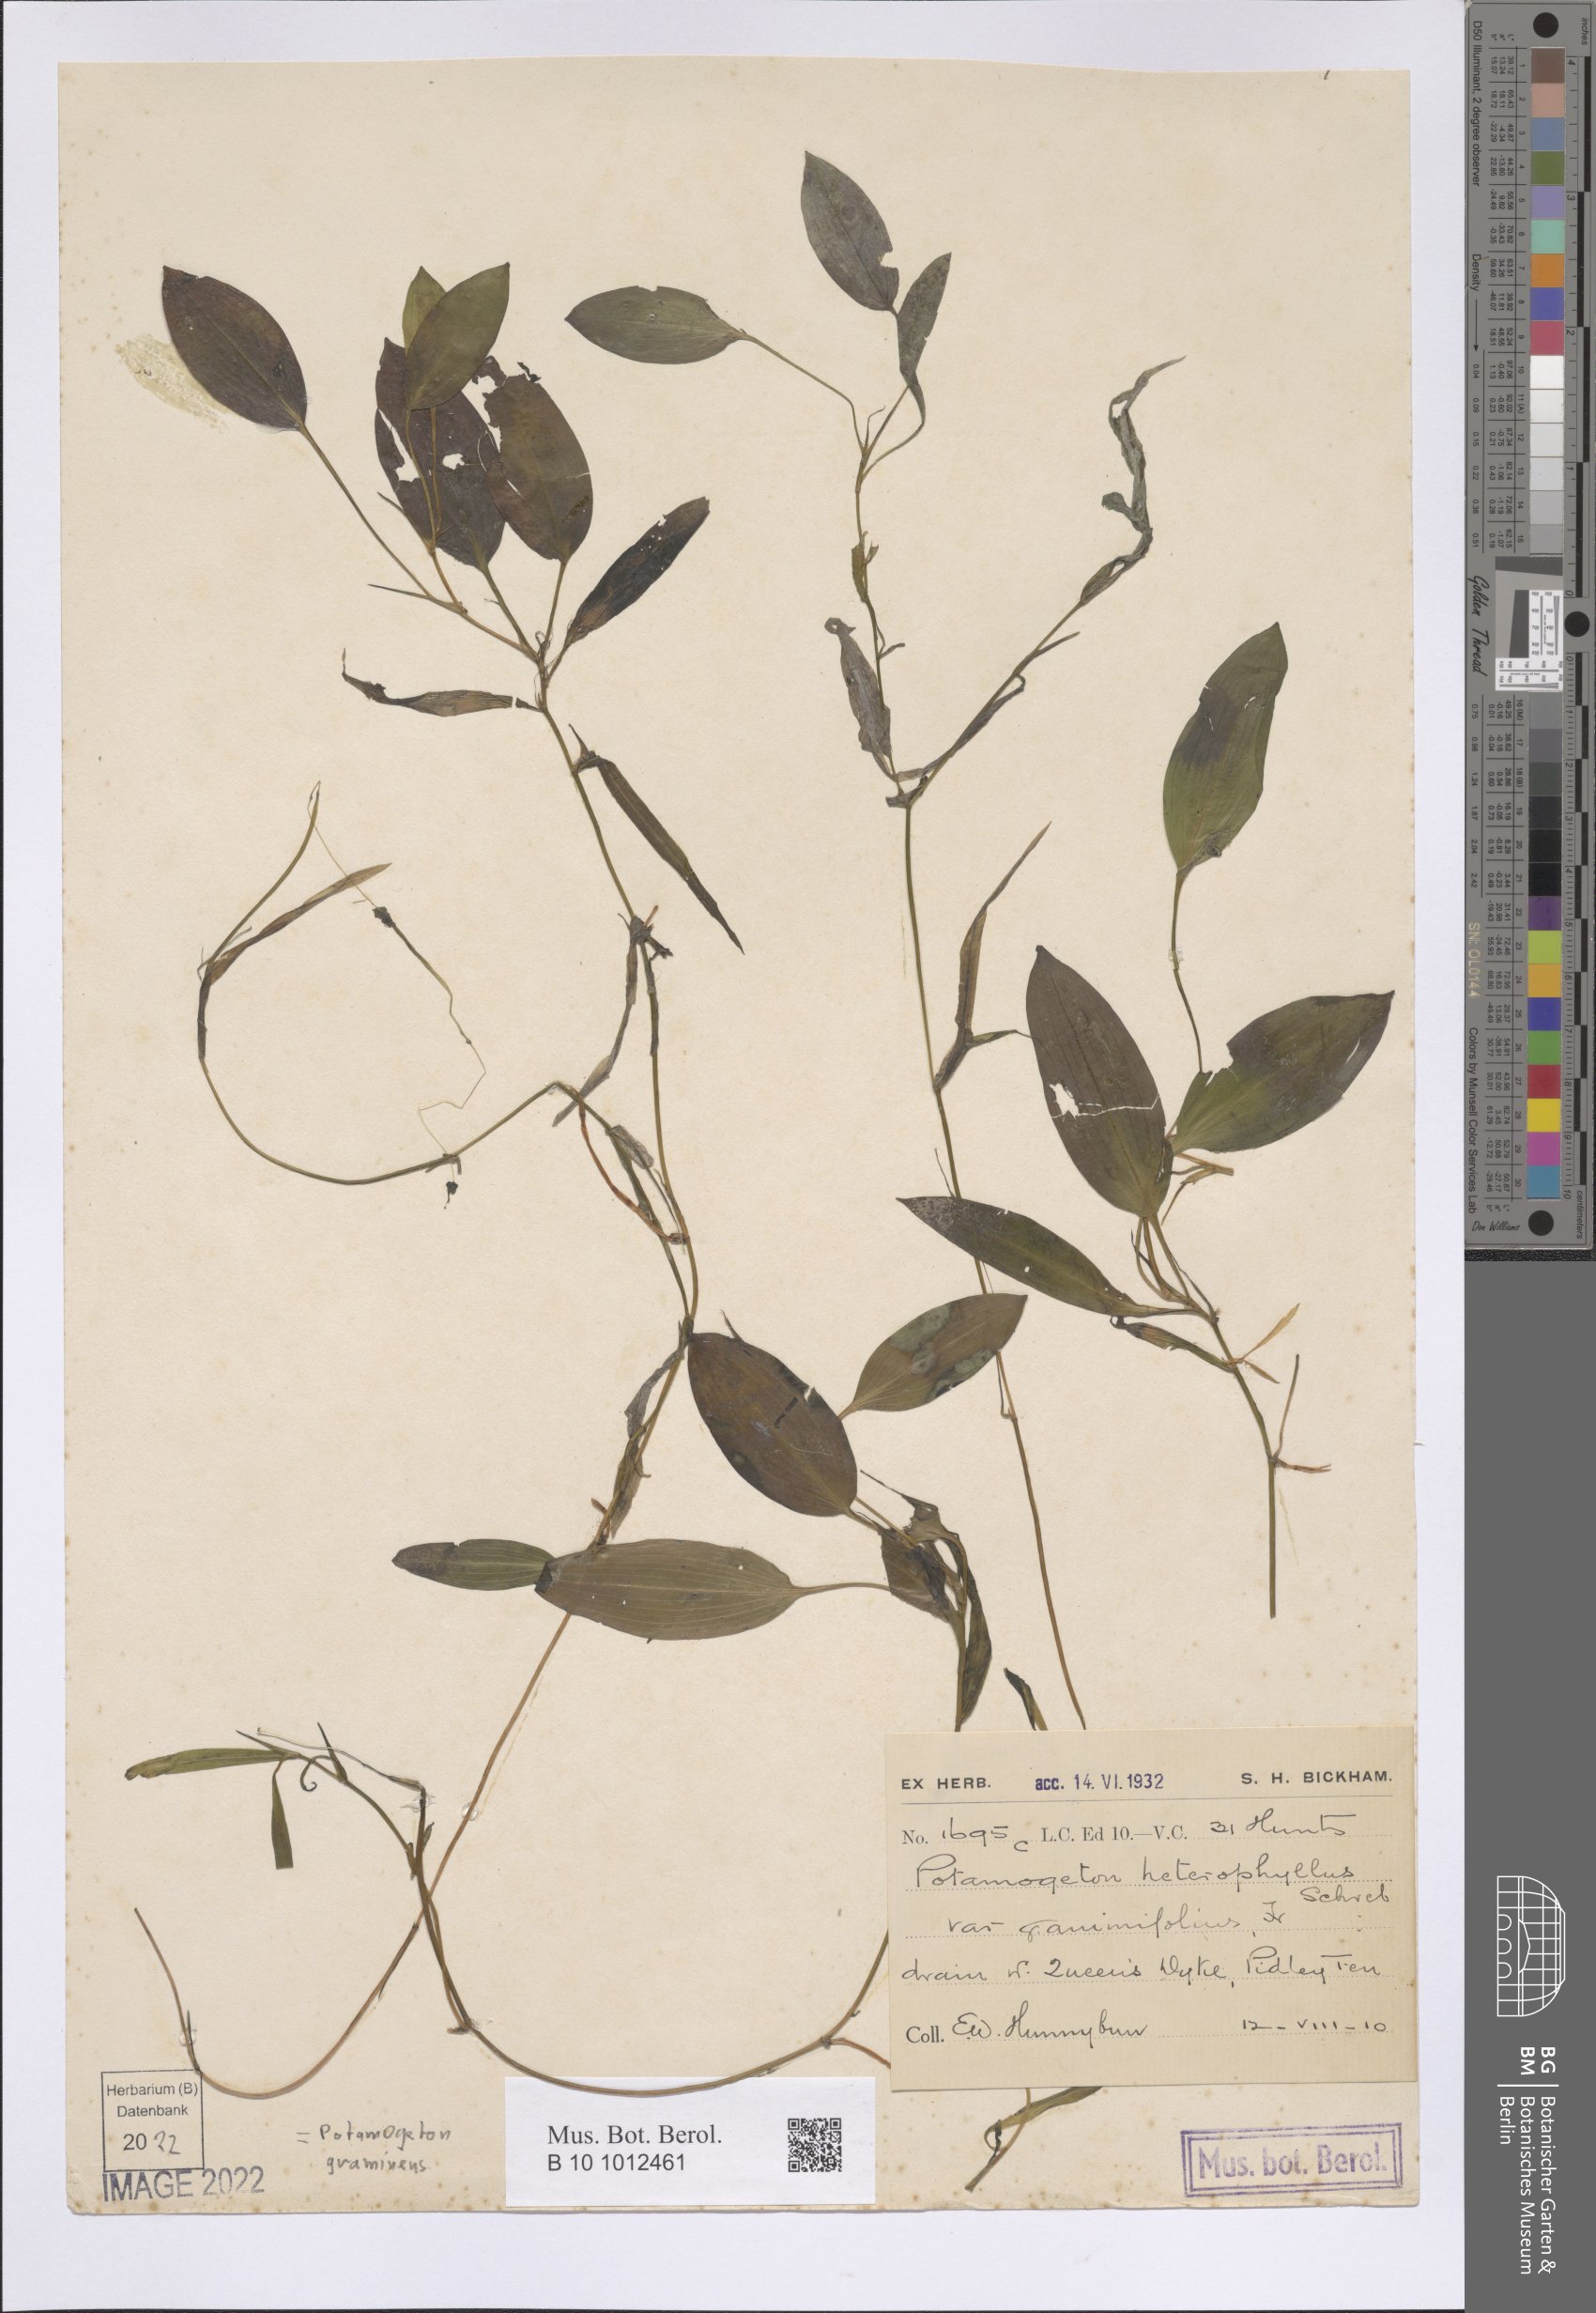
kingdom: Plantae
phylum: Tracheophyta
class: Liliopsida
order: Alismatales
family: Potamogetonaceae
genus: Potamogeton
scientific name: Potamogeton gramineus
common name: Various-leaved pondweed
